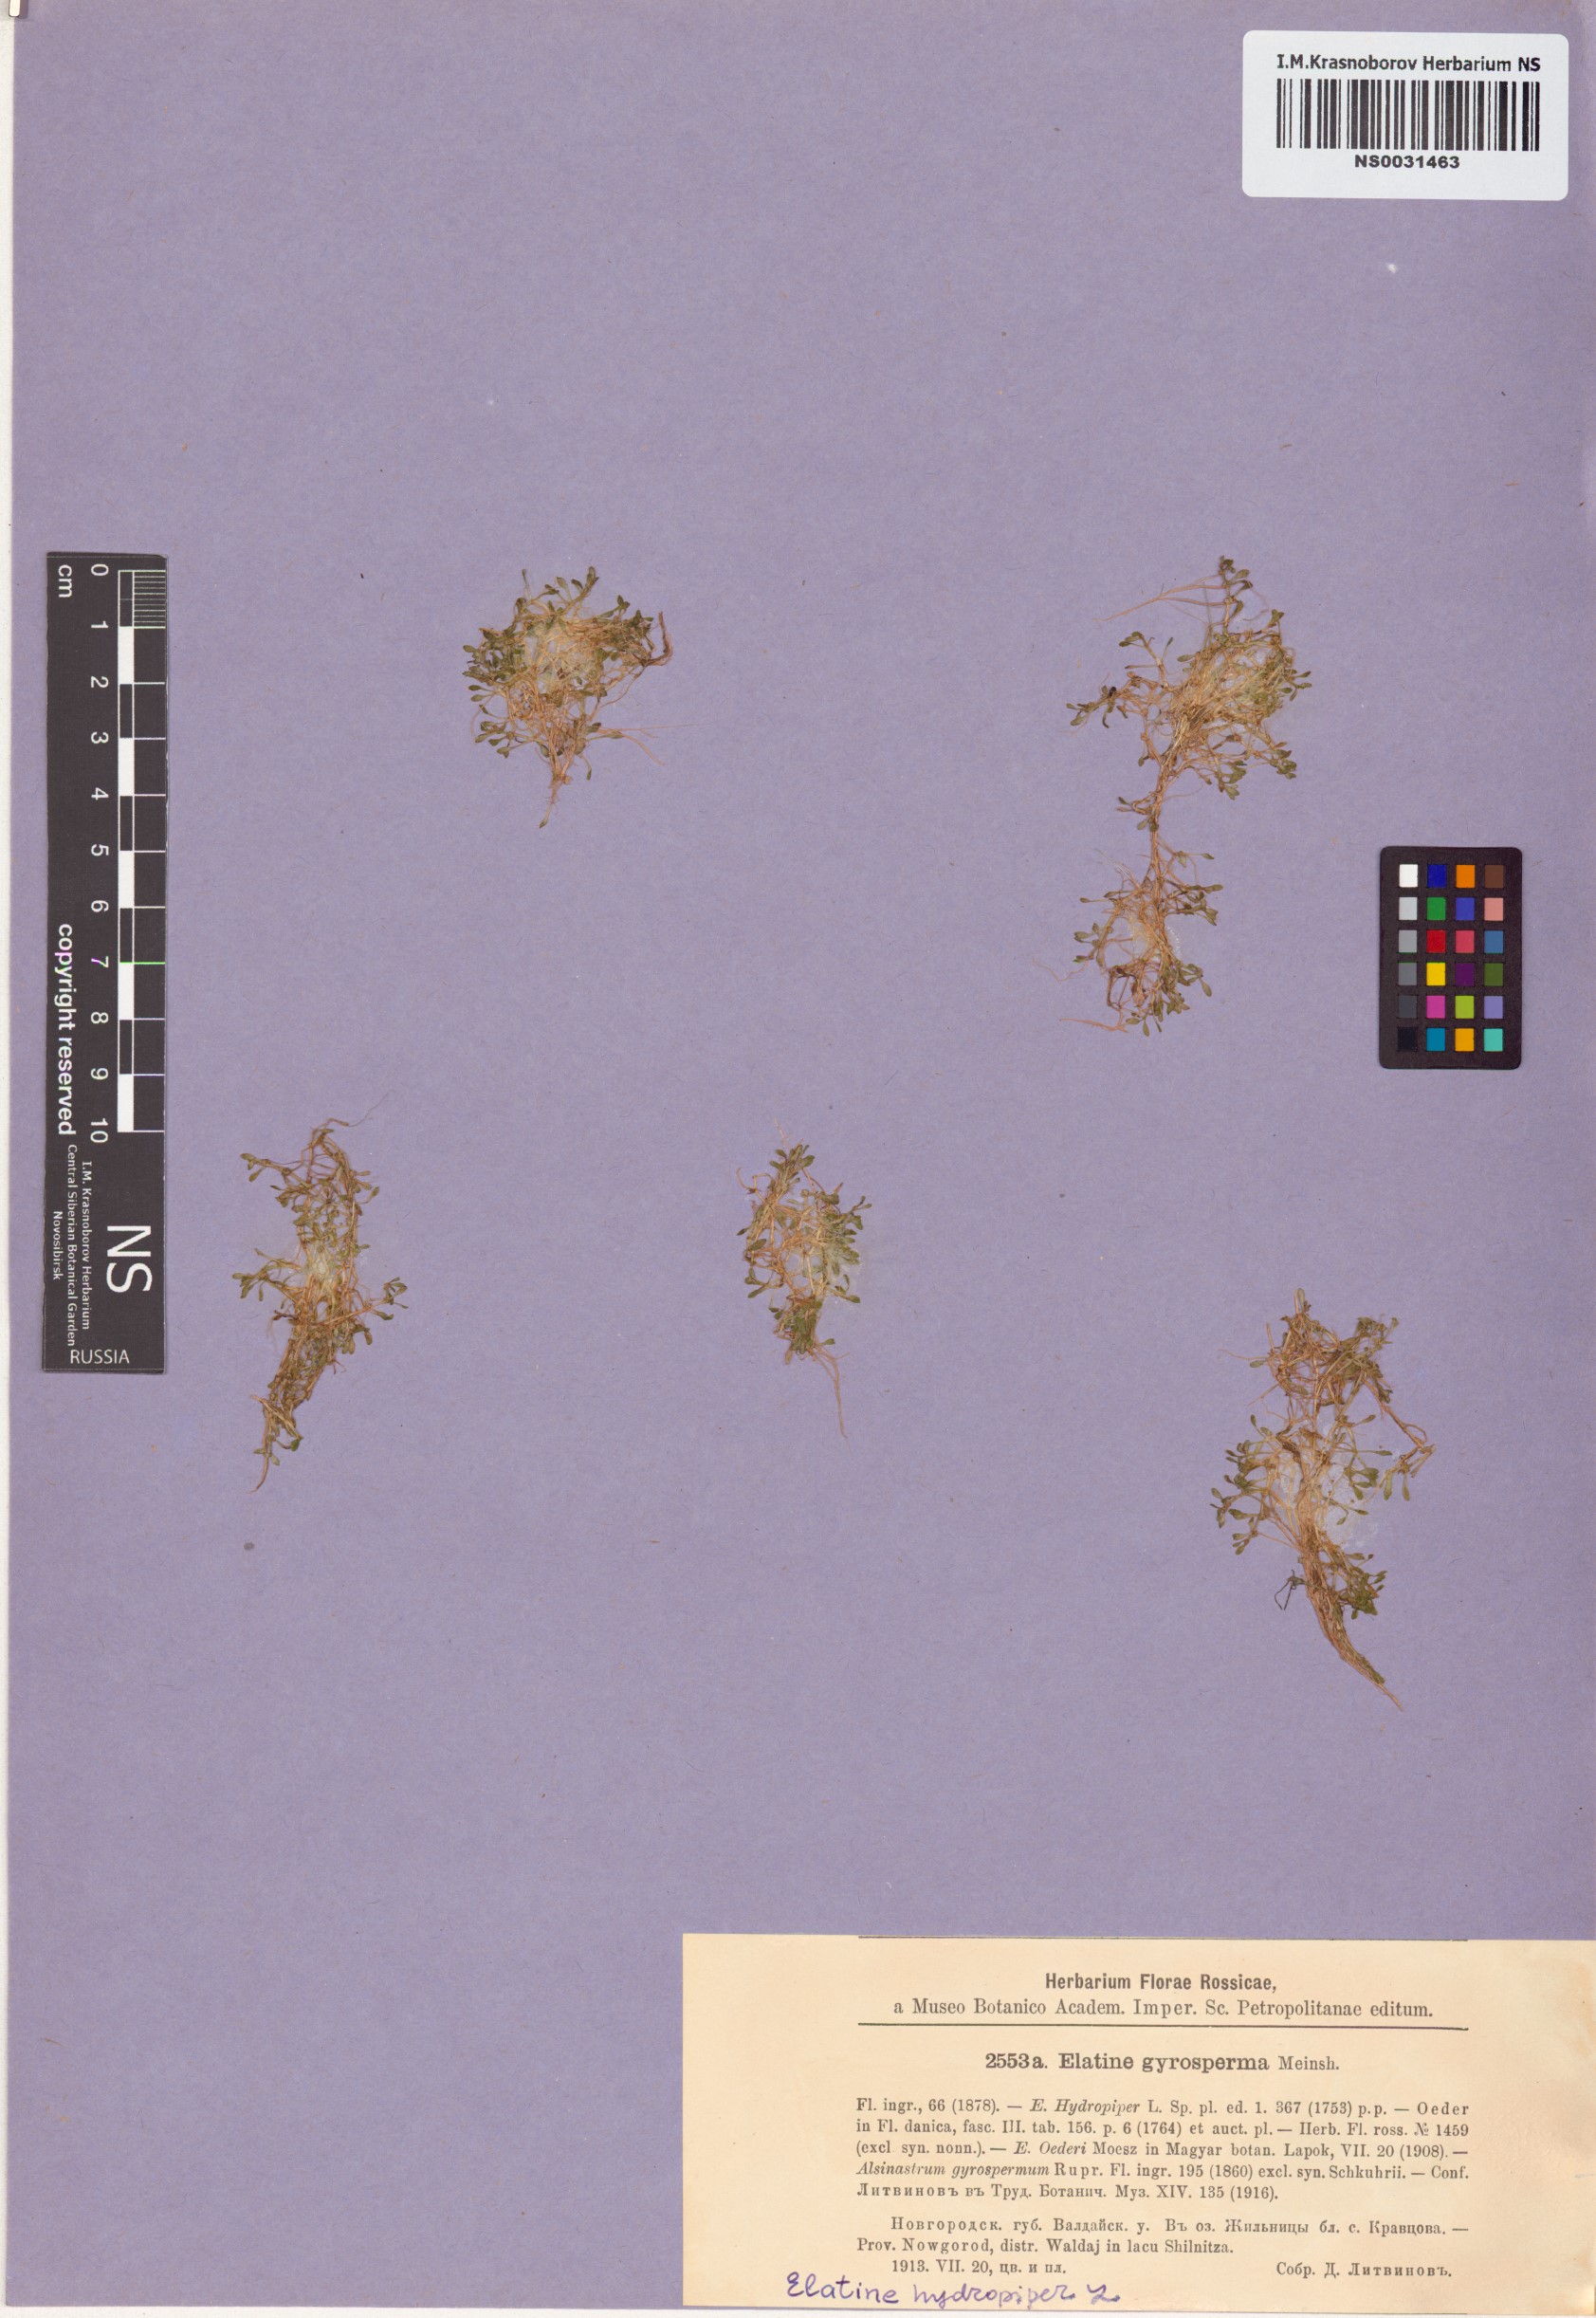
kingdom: Plantae
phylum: Tracheophyta
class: Magnoliopsida
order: Malpighiales
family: Elatinaceae
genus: Elatine
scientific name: Elatine hydropiper
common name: Eight-stamened waterwort
